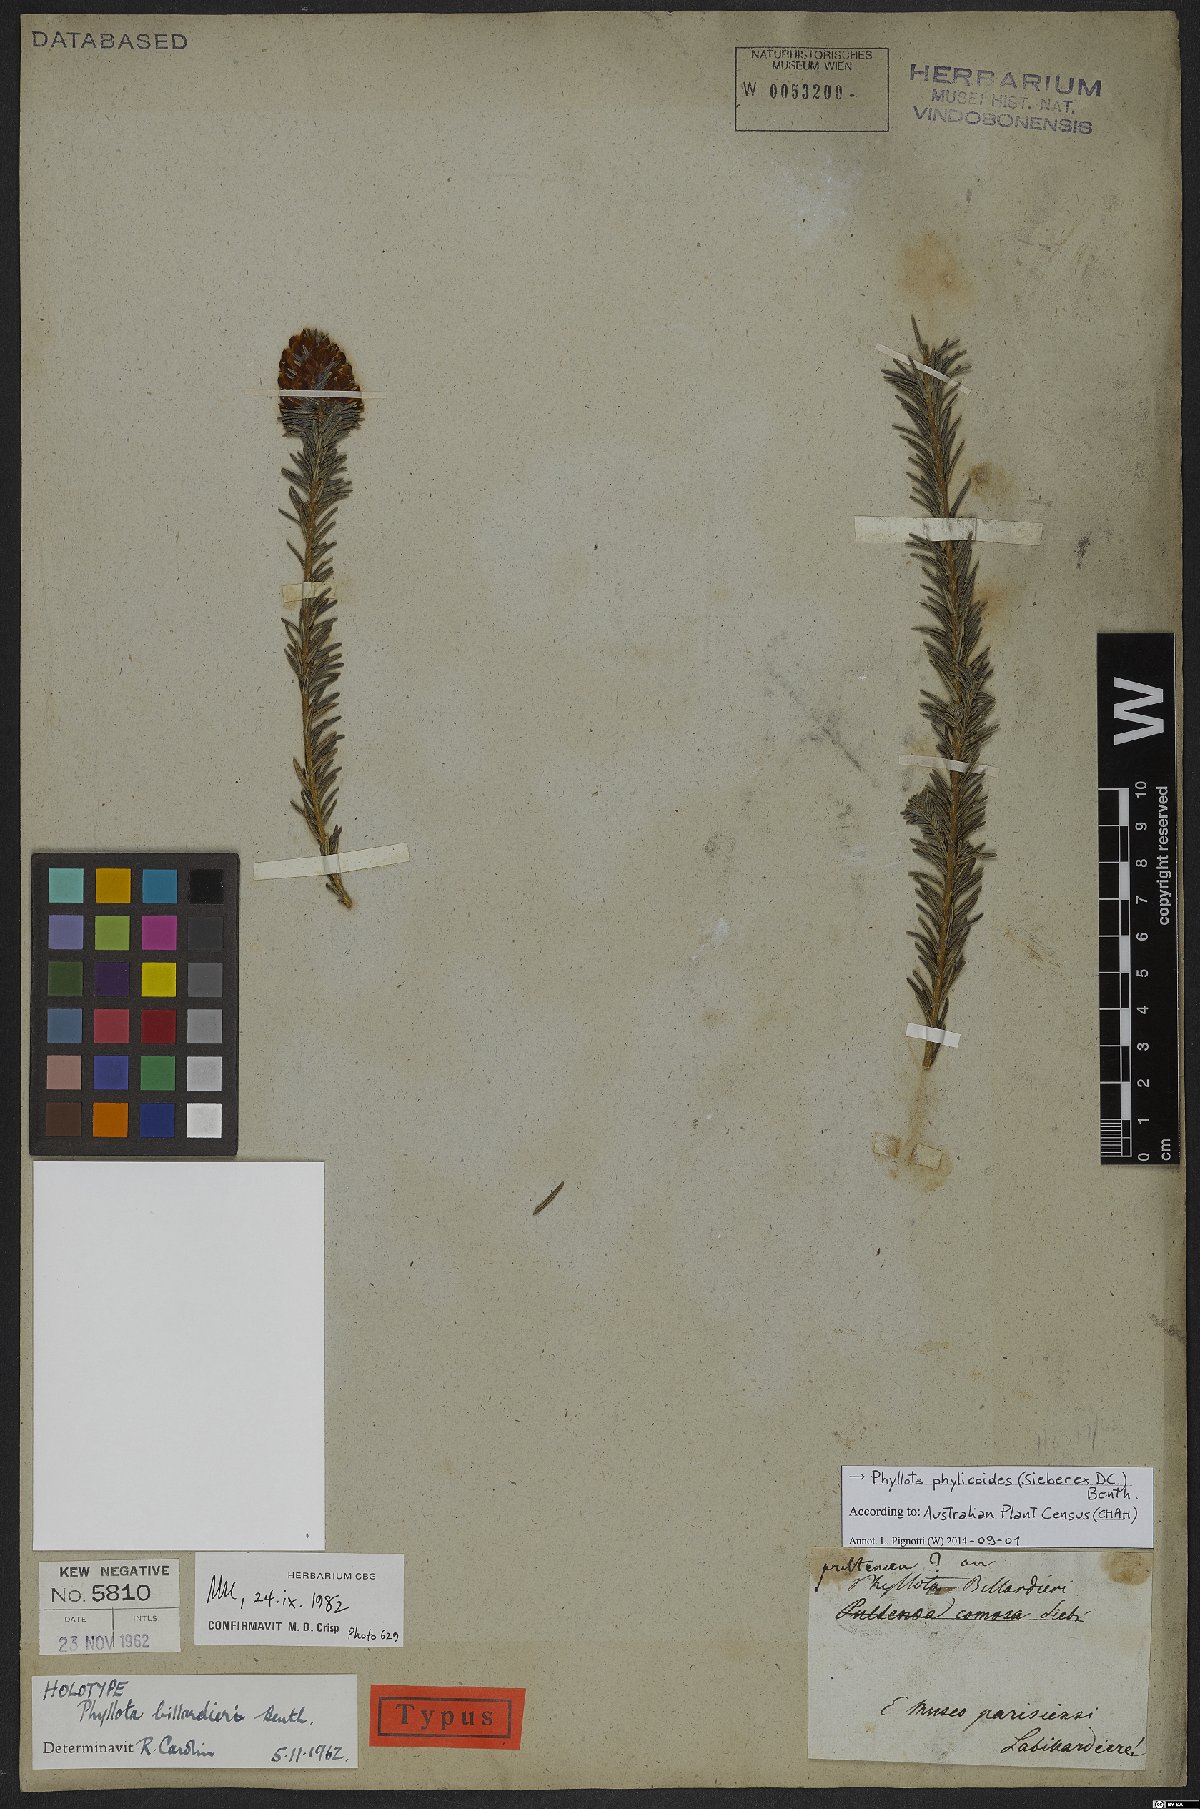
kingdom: Plantae
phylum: Tracheophyta
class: Magnoliopsida
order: Fabales
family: Fabaceae
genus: Phyllota
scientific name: Phyllota phylicoides
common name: Heath phyllota
